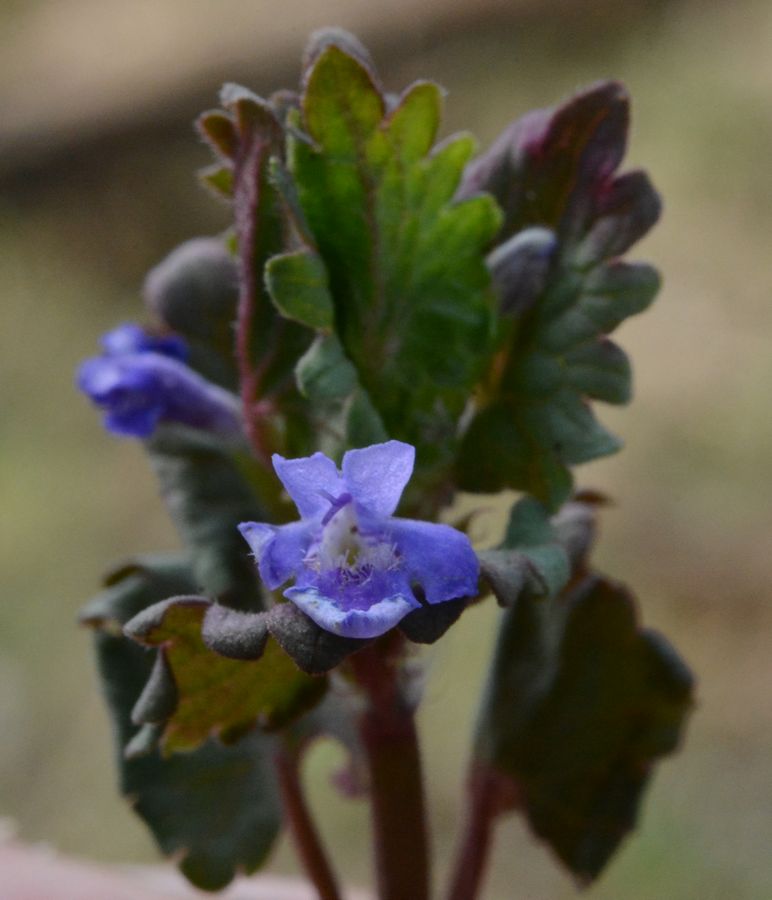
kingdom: Plantae
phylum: Tracheophyta
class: Magnoliopsida
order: Lamiales
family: Lamiaceae
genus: Glechoma
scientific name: Glechoma hederacea
